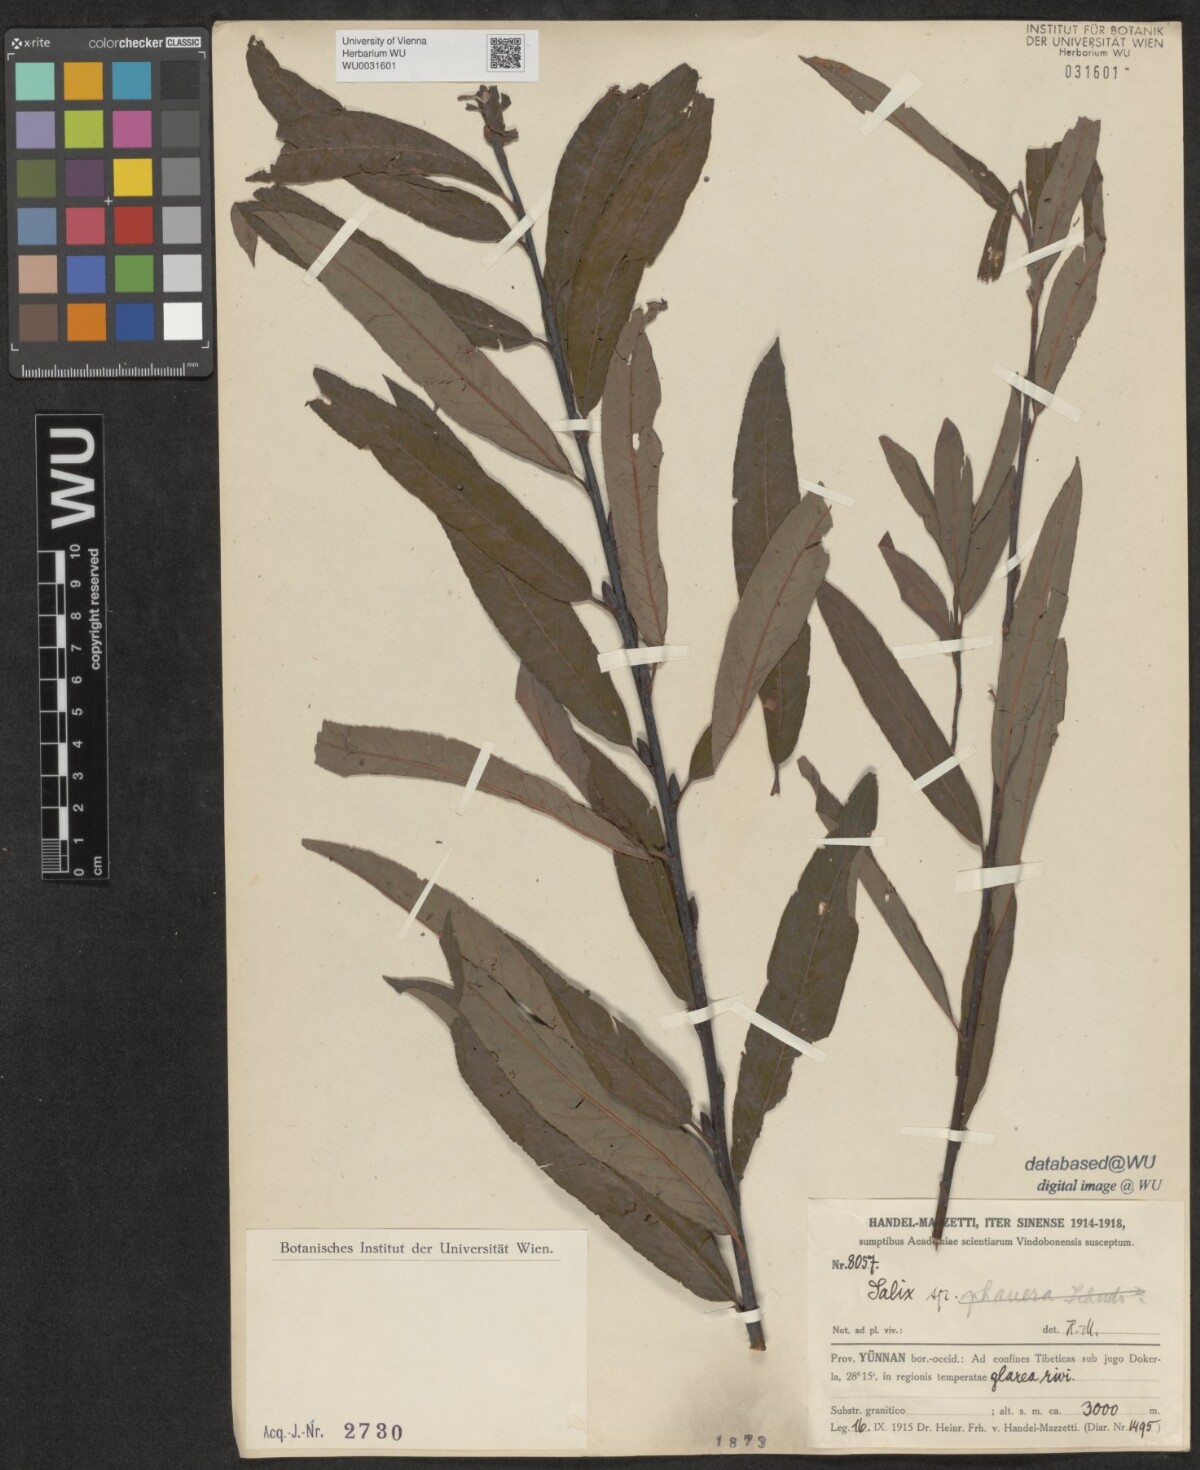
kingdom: Plantae
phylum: Tracheophyta
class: Magnoliopsida
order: Malpighiales
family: Salicaceae
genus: Salix
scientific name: Salix
